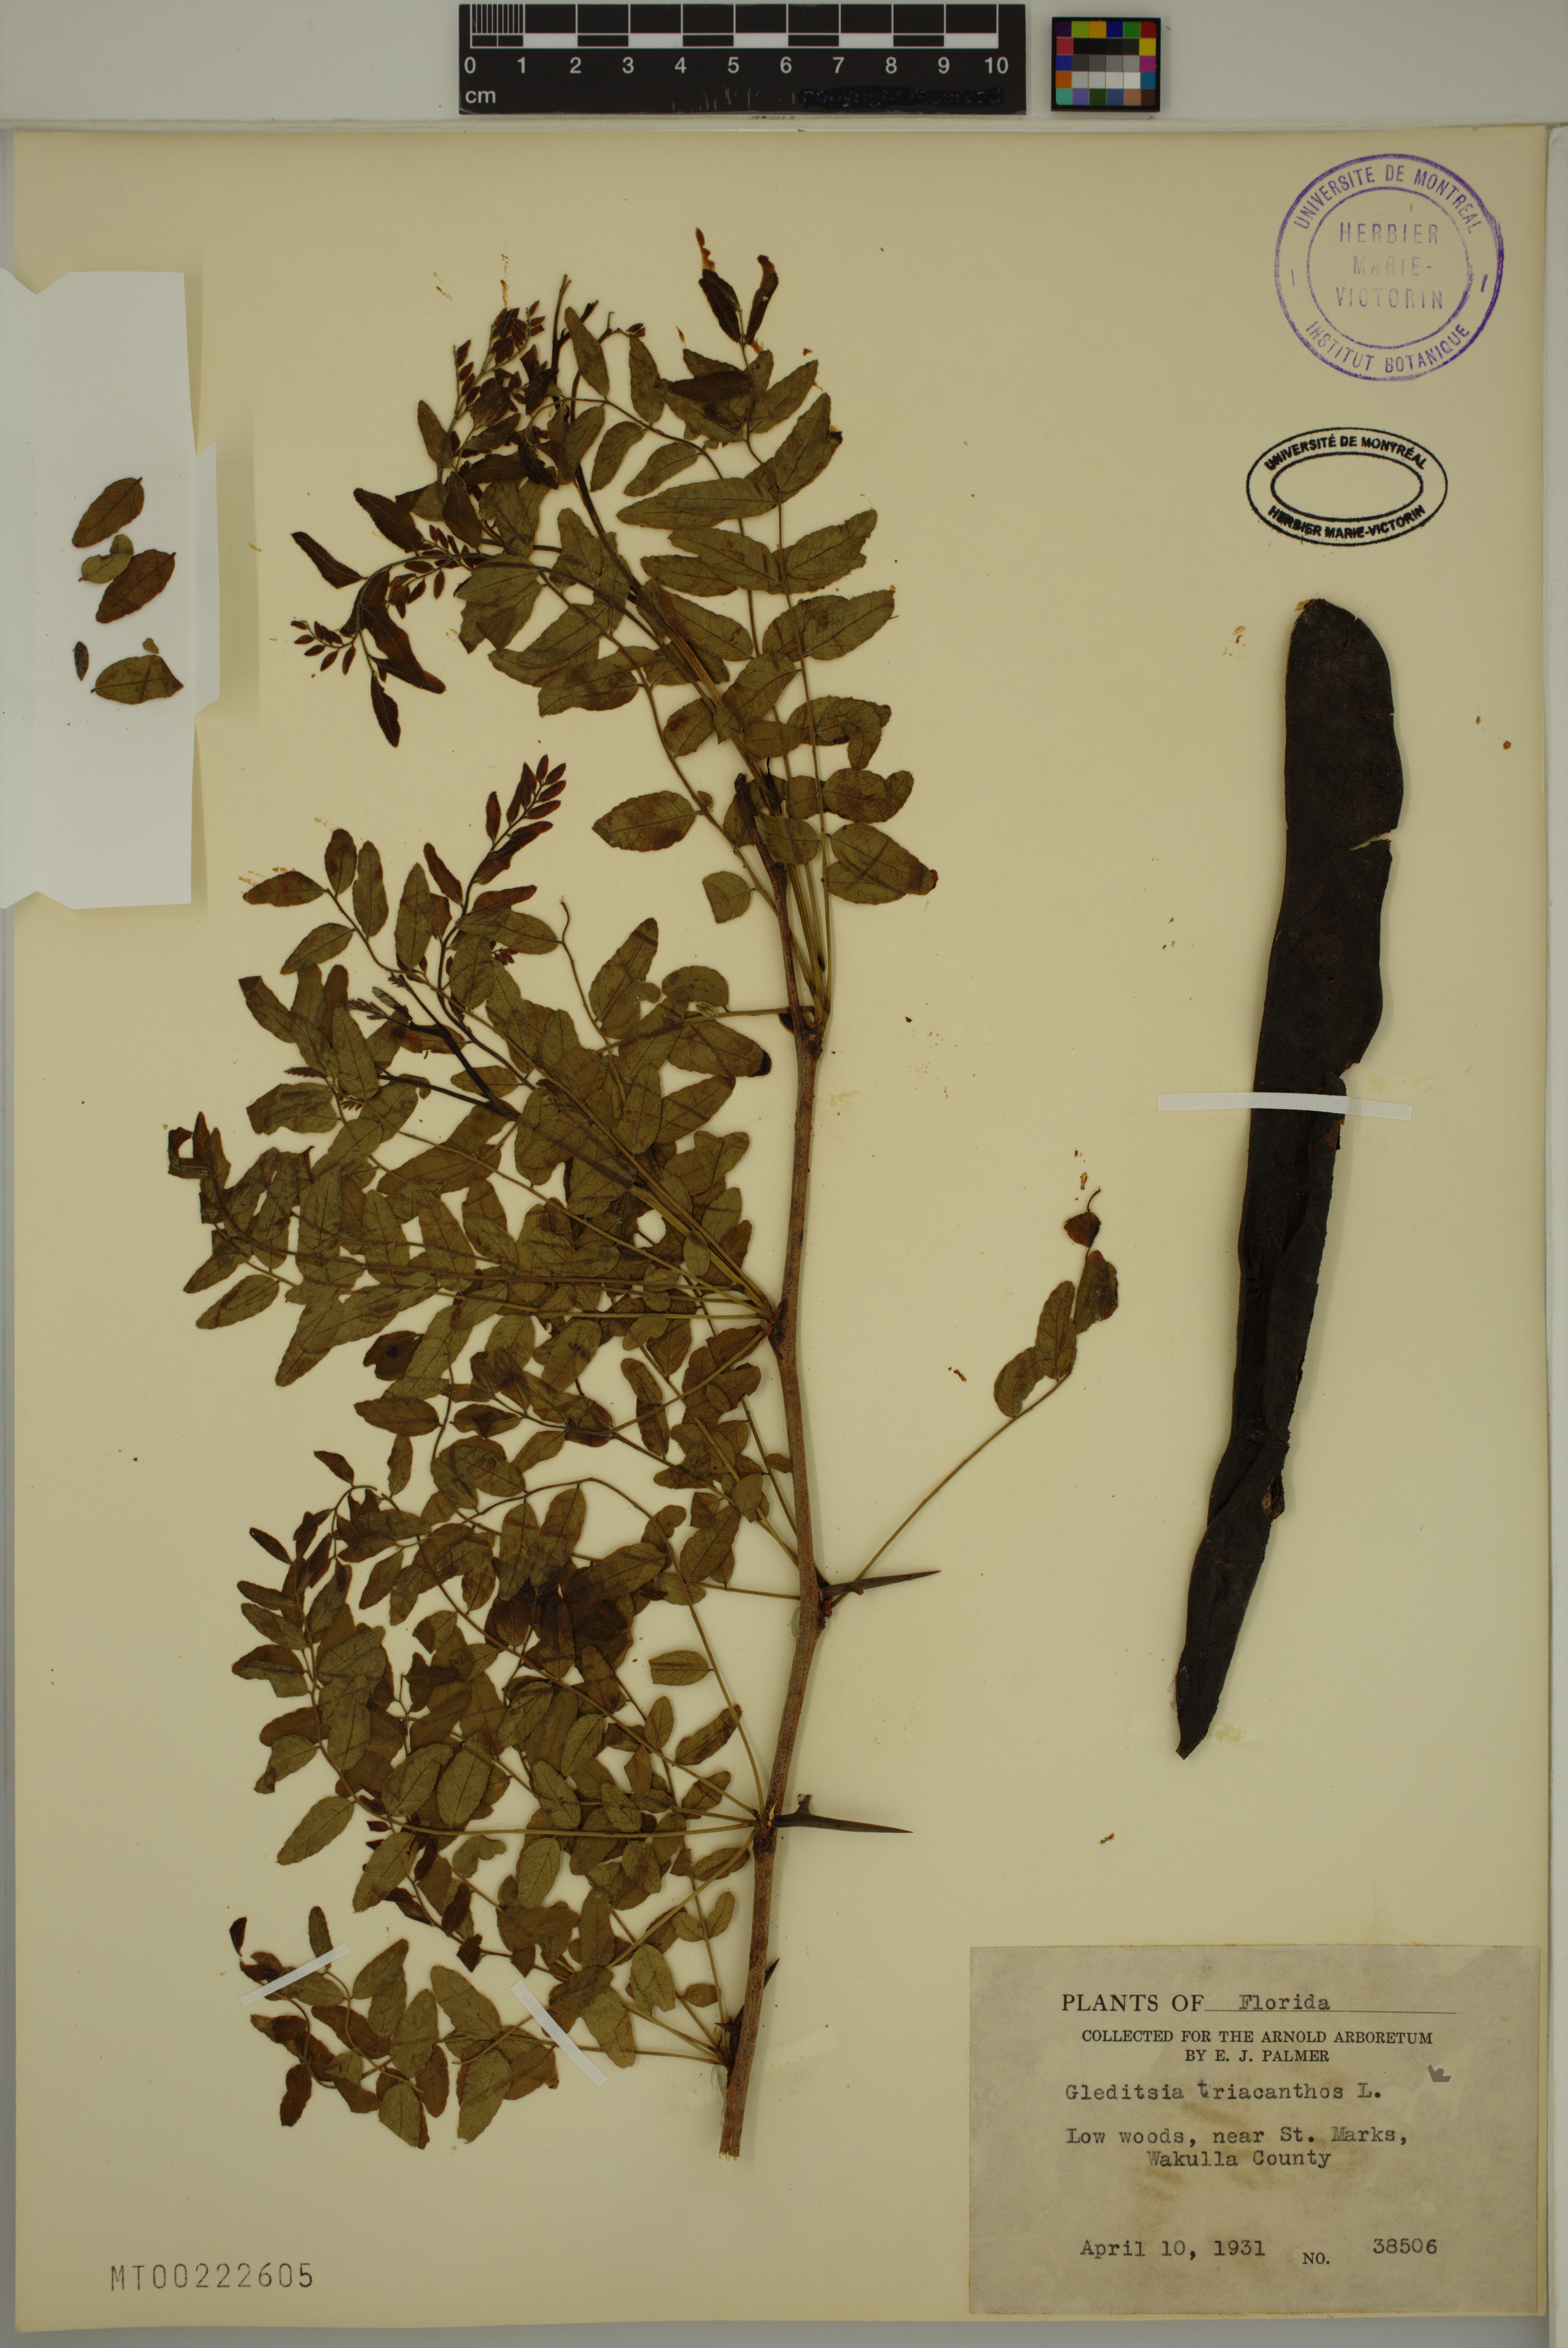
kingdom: Plantae
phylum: Tracheophyta
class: Magnoliopsida
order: Fabales
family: Fabaceae
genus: Gleditsia
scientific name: Gleditsia triacanthos
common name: Common honeylocust
